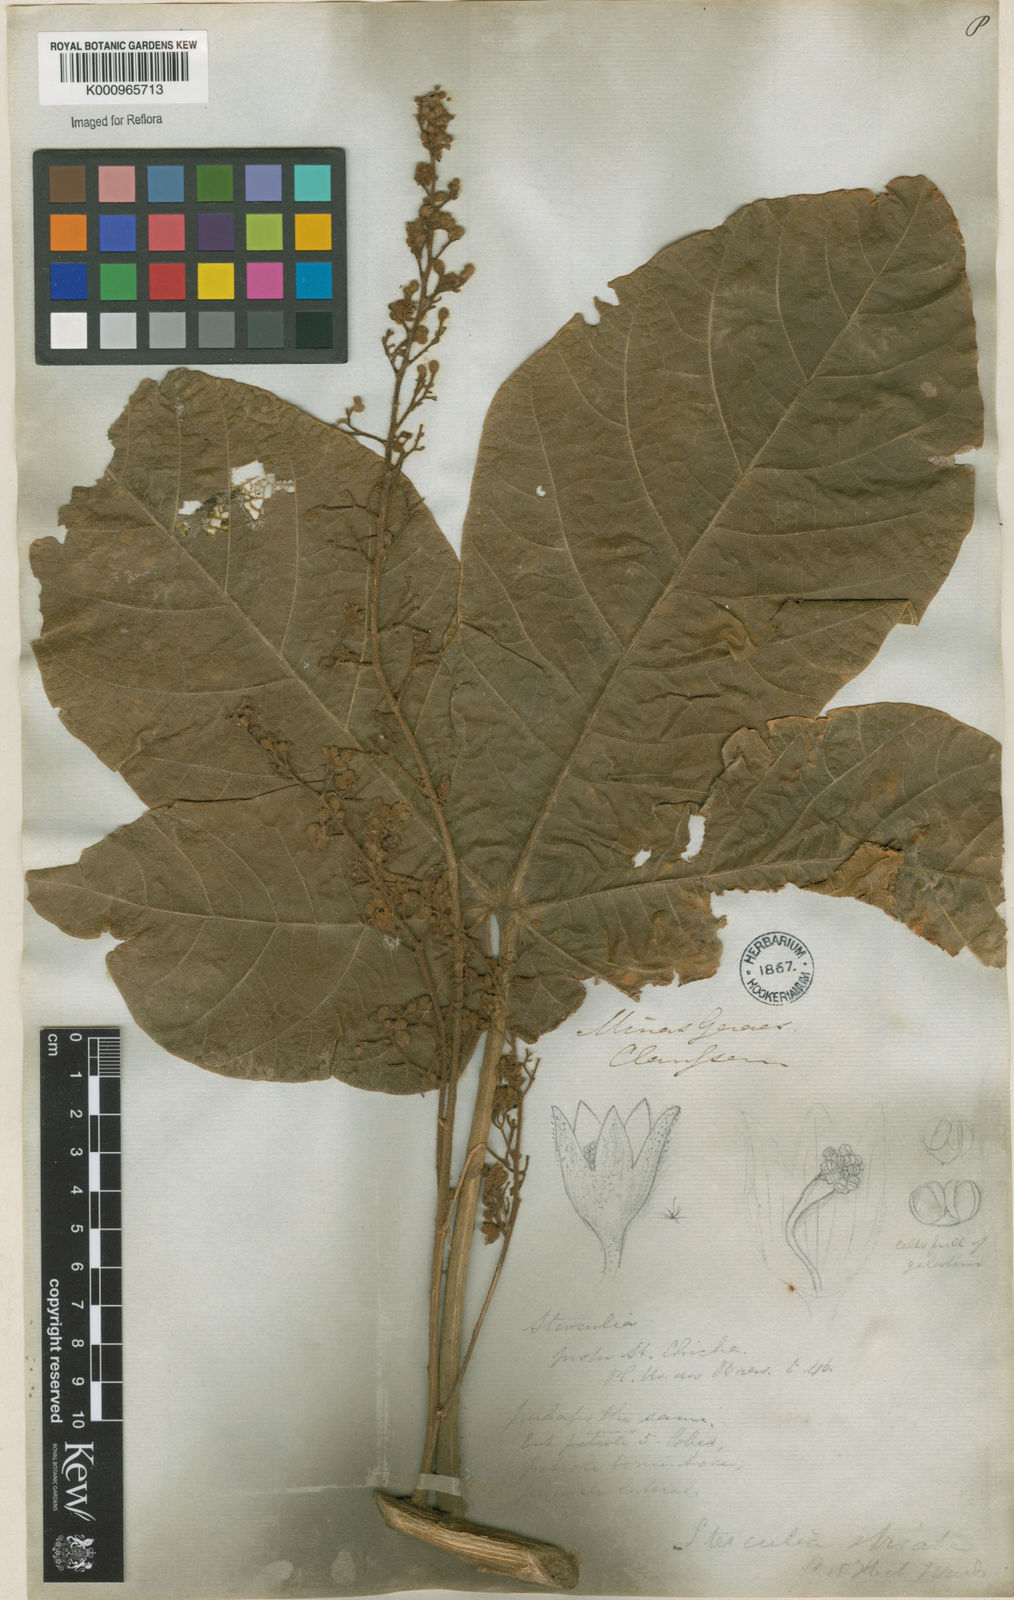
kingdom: Plantae
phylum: Tracheophyta
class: Magnoliopsida
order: Malvales
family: Malvaceae
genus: Sterculia
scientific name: Sterculia striata
